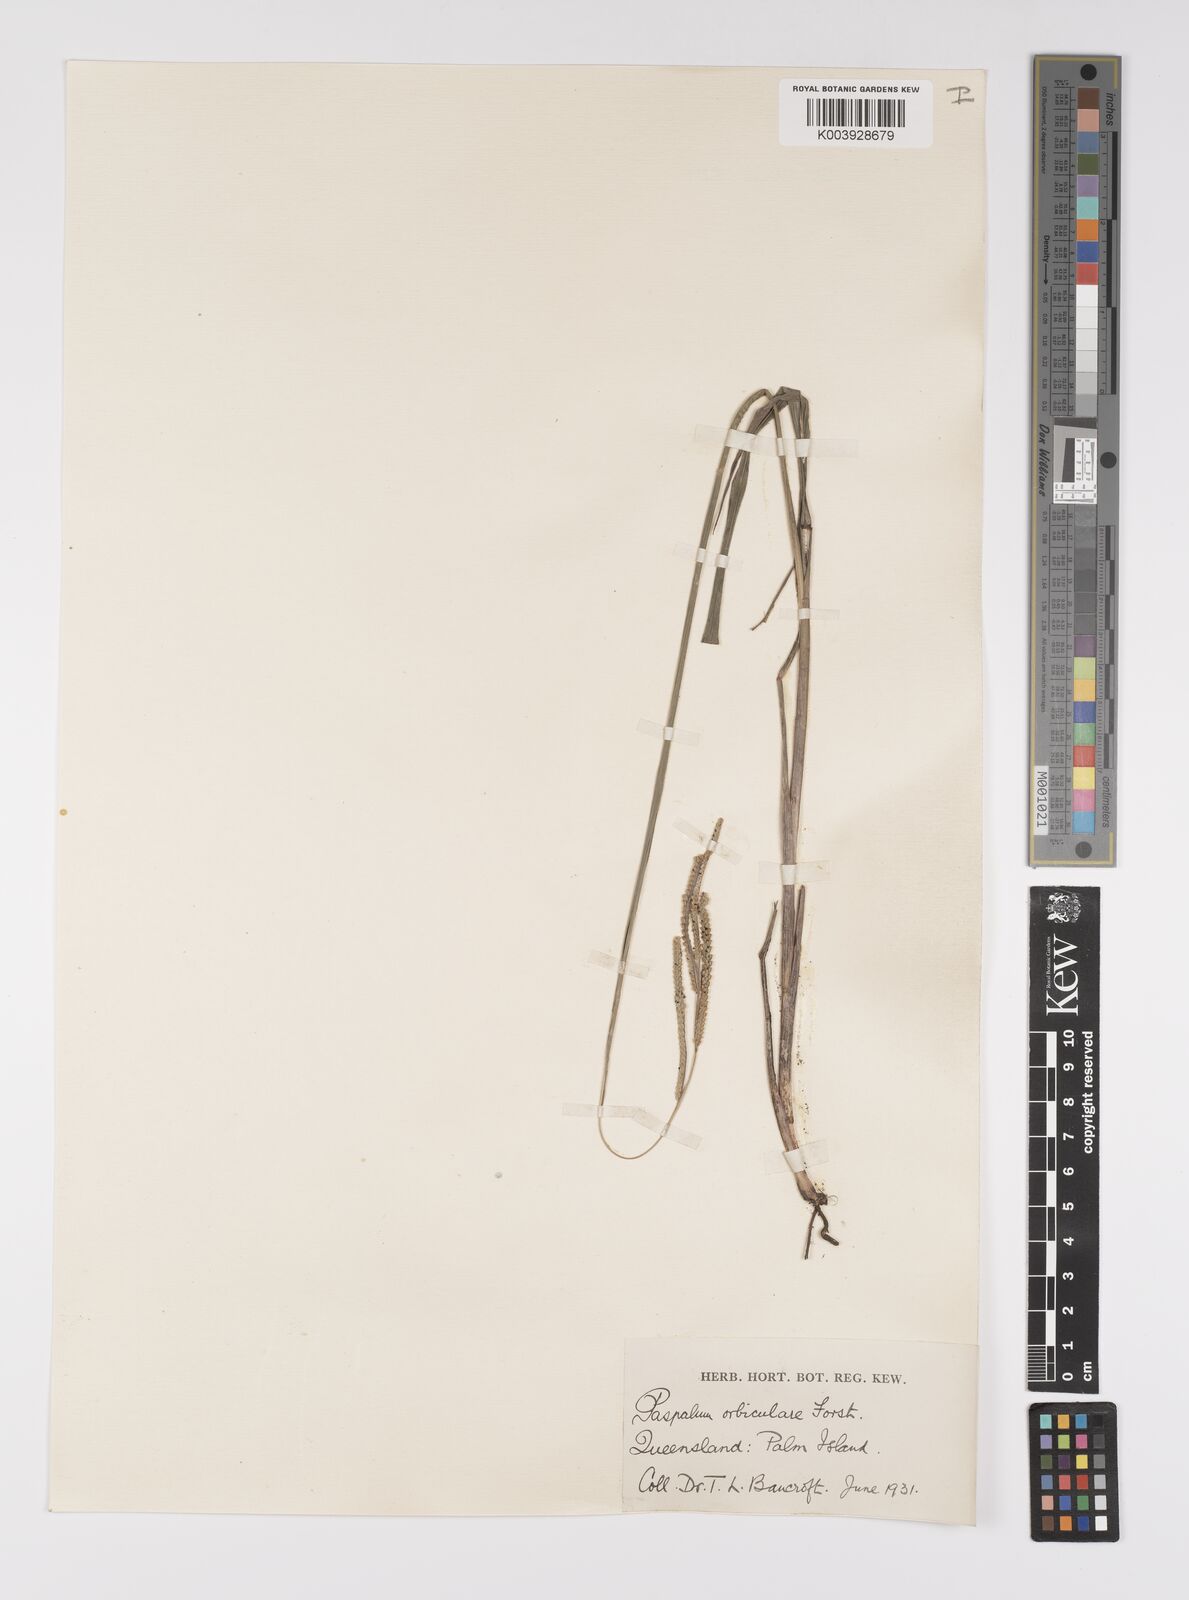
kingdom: Plantae
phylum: Tracheophyta
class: Liliopsida
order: Poales
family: Poaceae
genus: Paspalum
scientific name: Paspalum scrobiculatum
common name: Kodo millet
